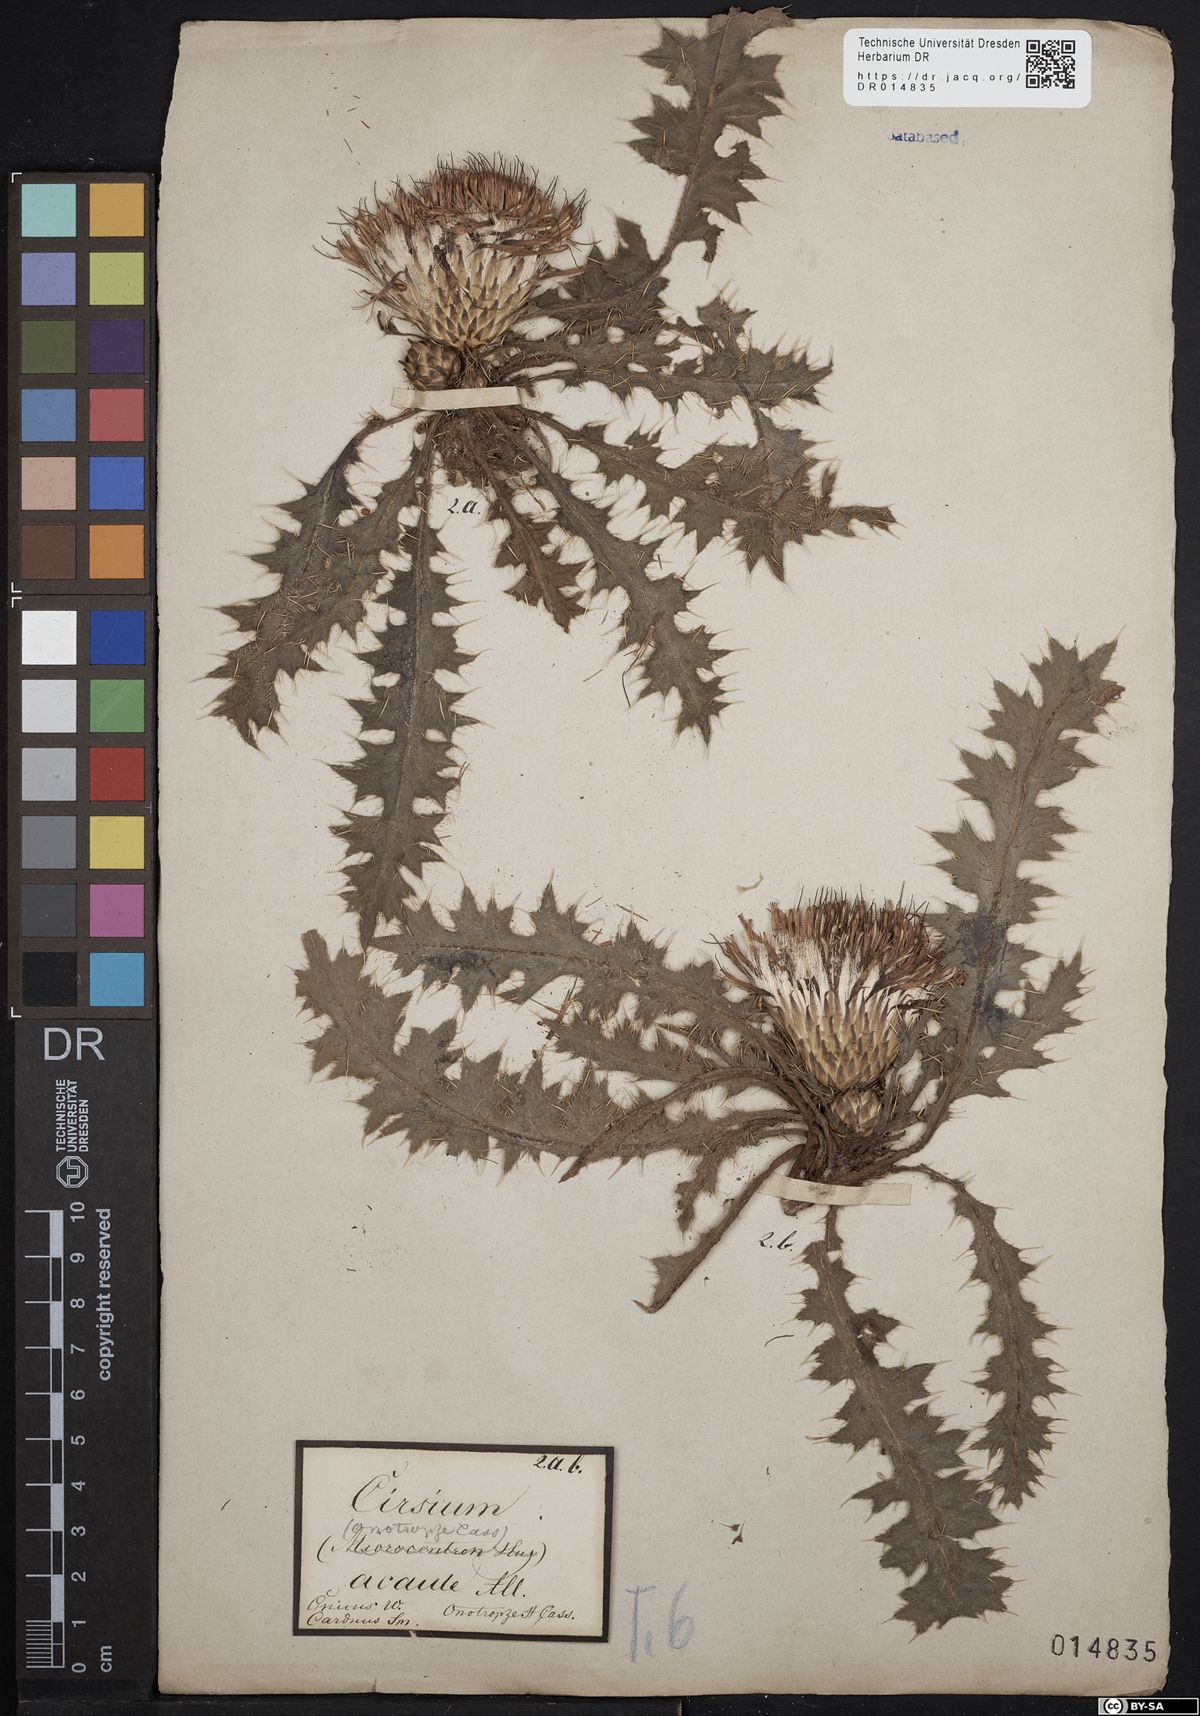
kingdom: Plantae
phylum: Tracheophyta
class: Magnoliopsida
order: Asterales
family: Asteraceae
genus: Cirsium
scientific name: Cirsium acaule
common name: Dwarf thistle
